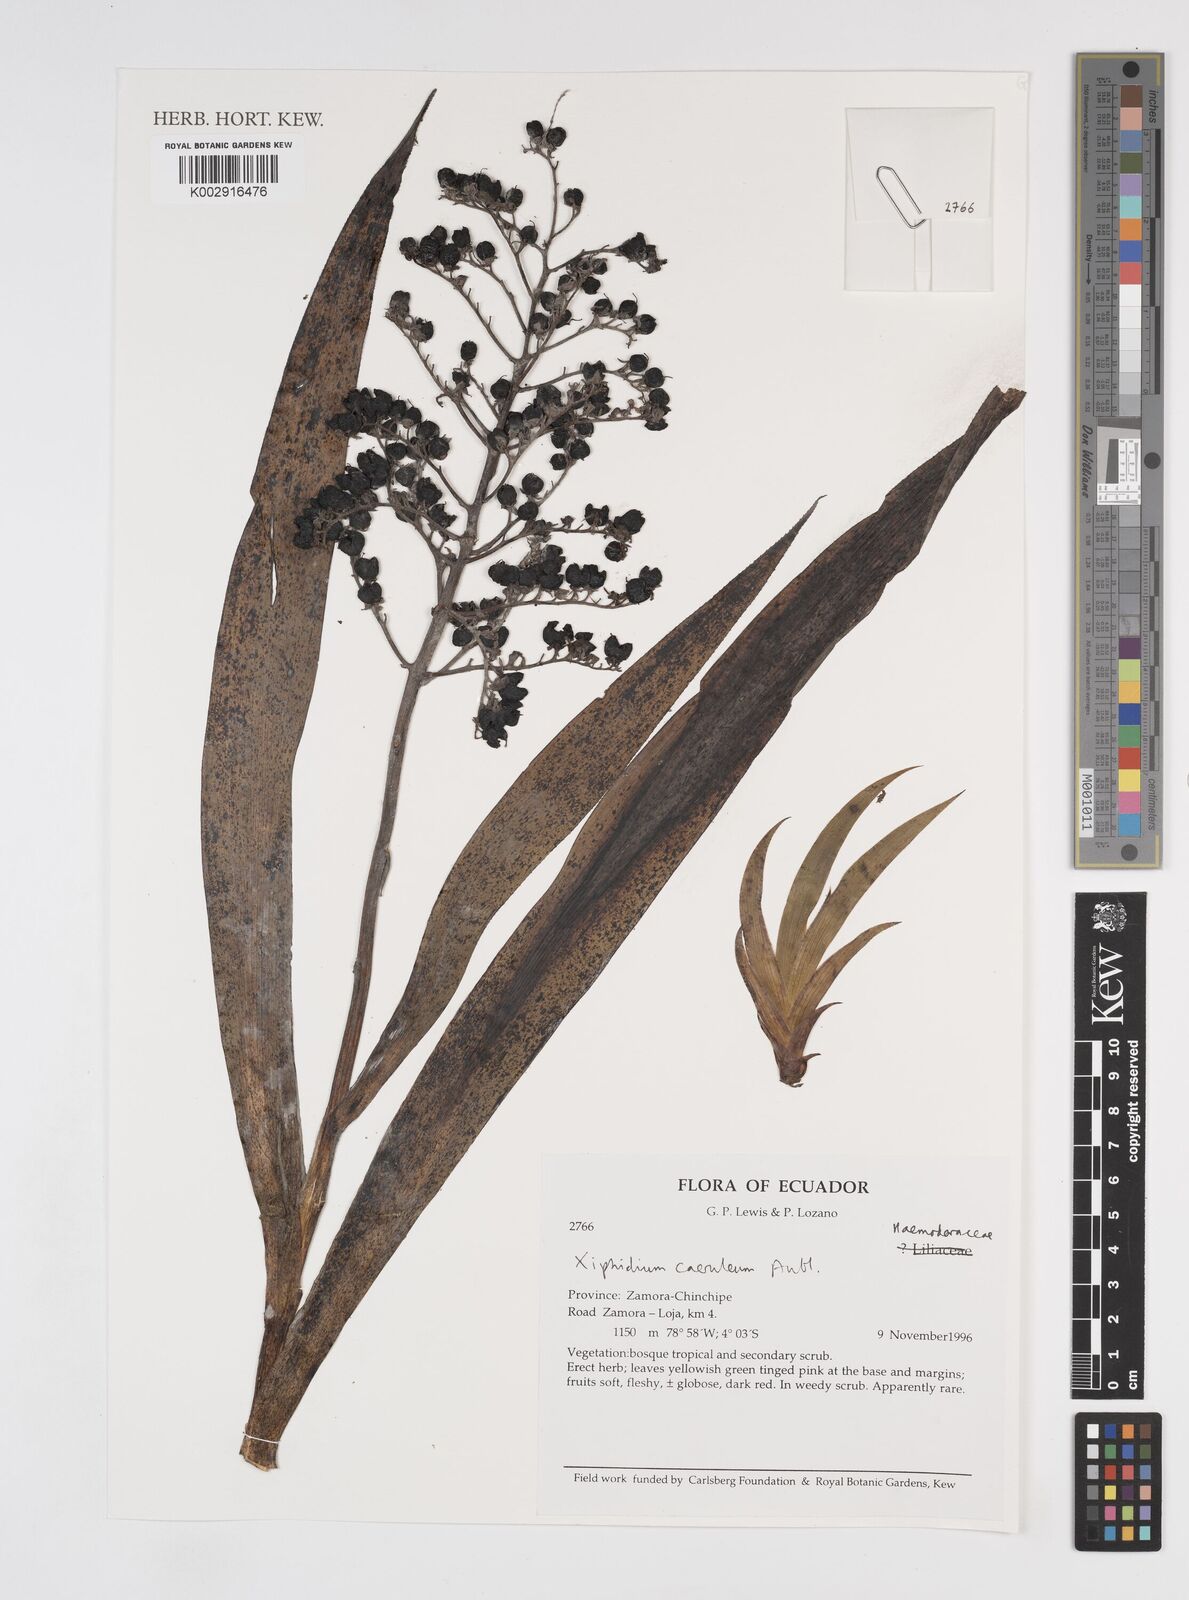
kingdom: Plantae
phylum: Tracheophyta
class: Liliopsida
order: Commelinales
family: Haemodoraceae
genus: Xiphidium
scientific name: Xiphidium caeruleum
